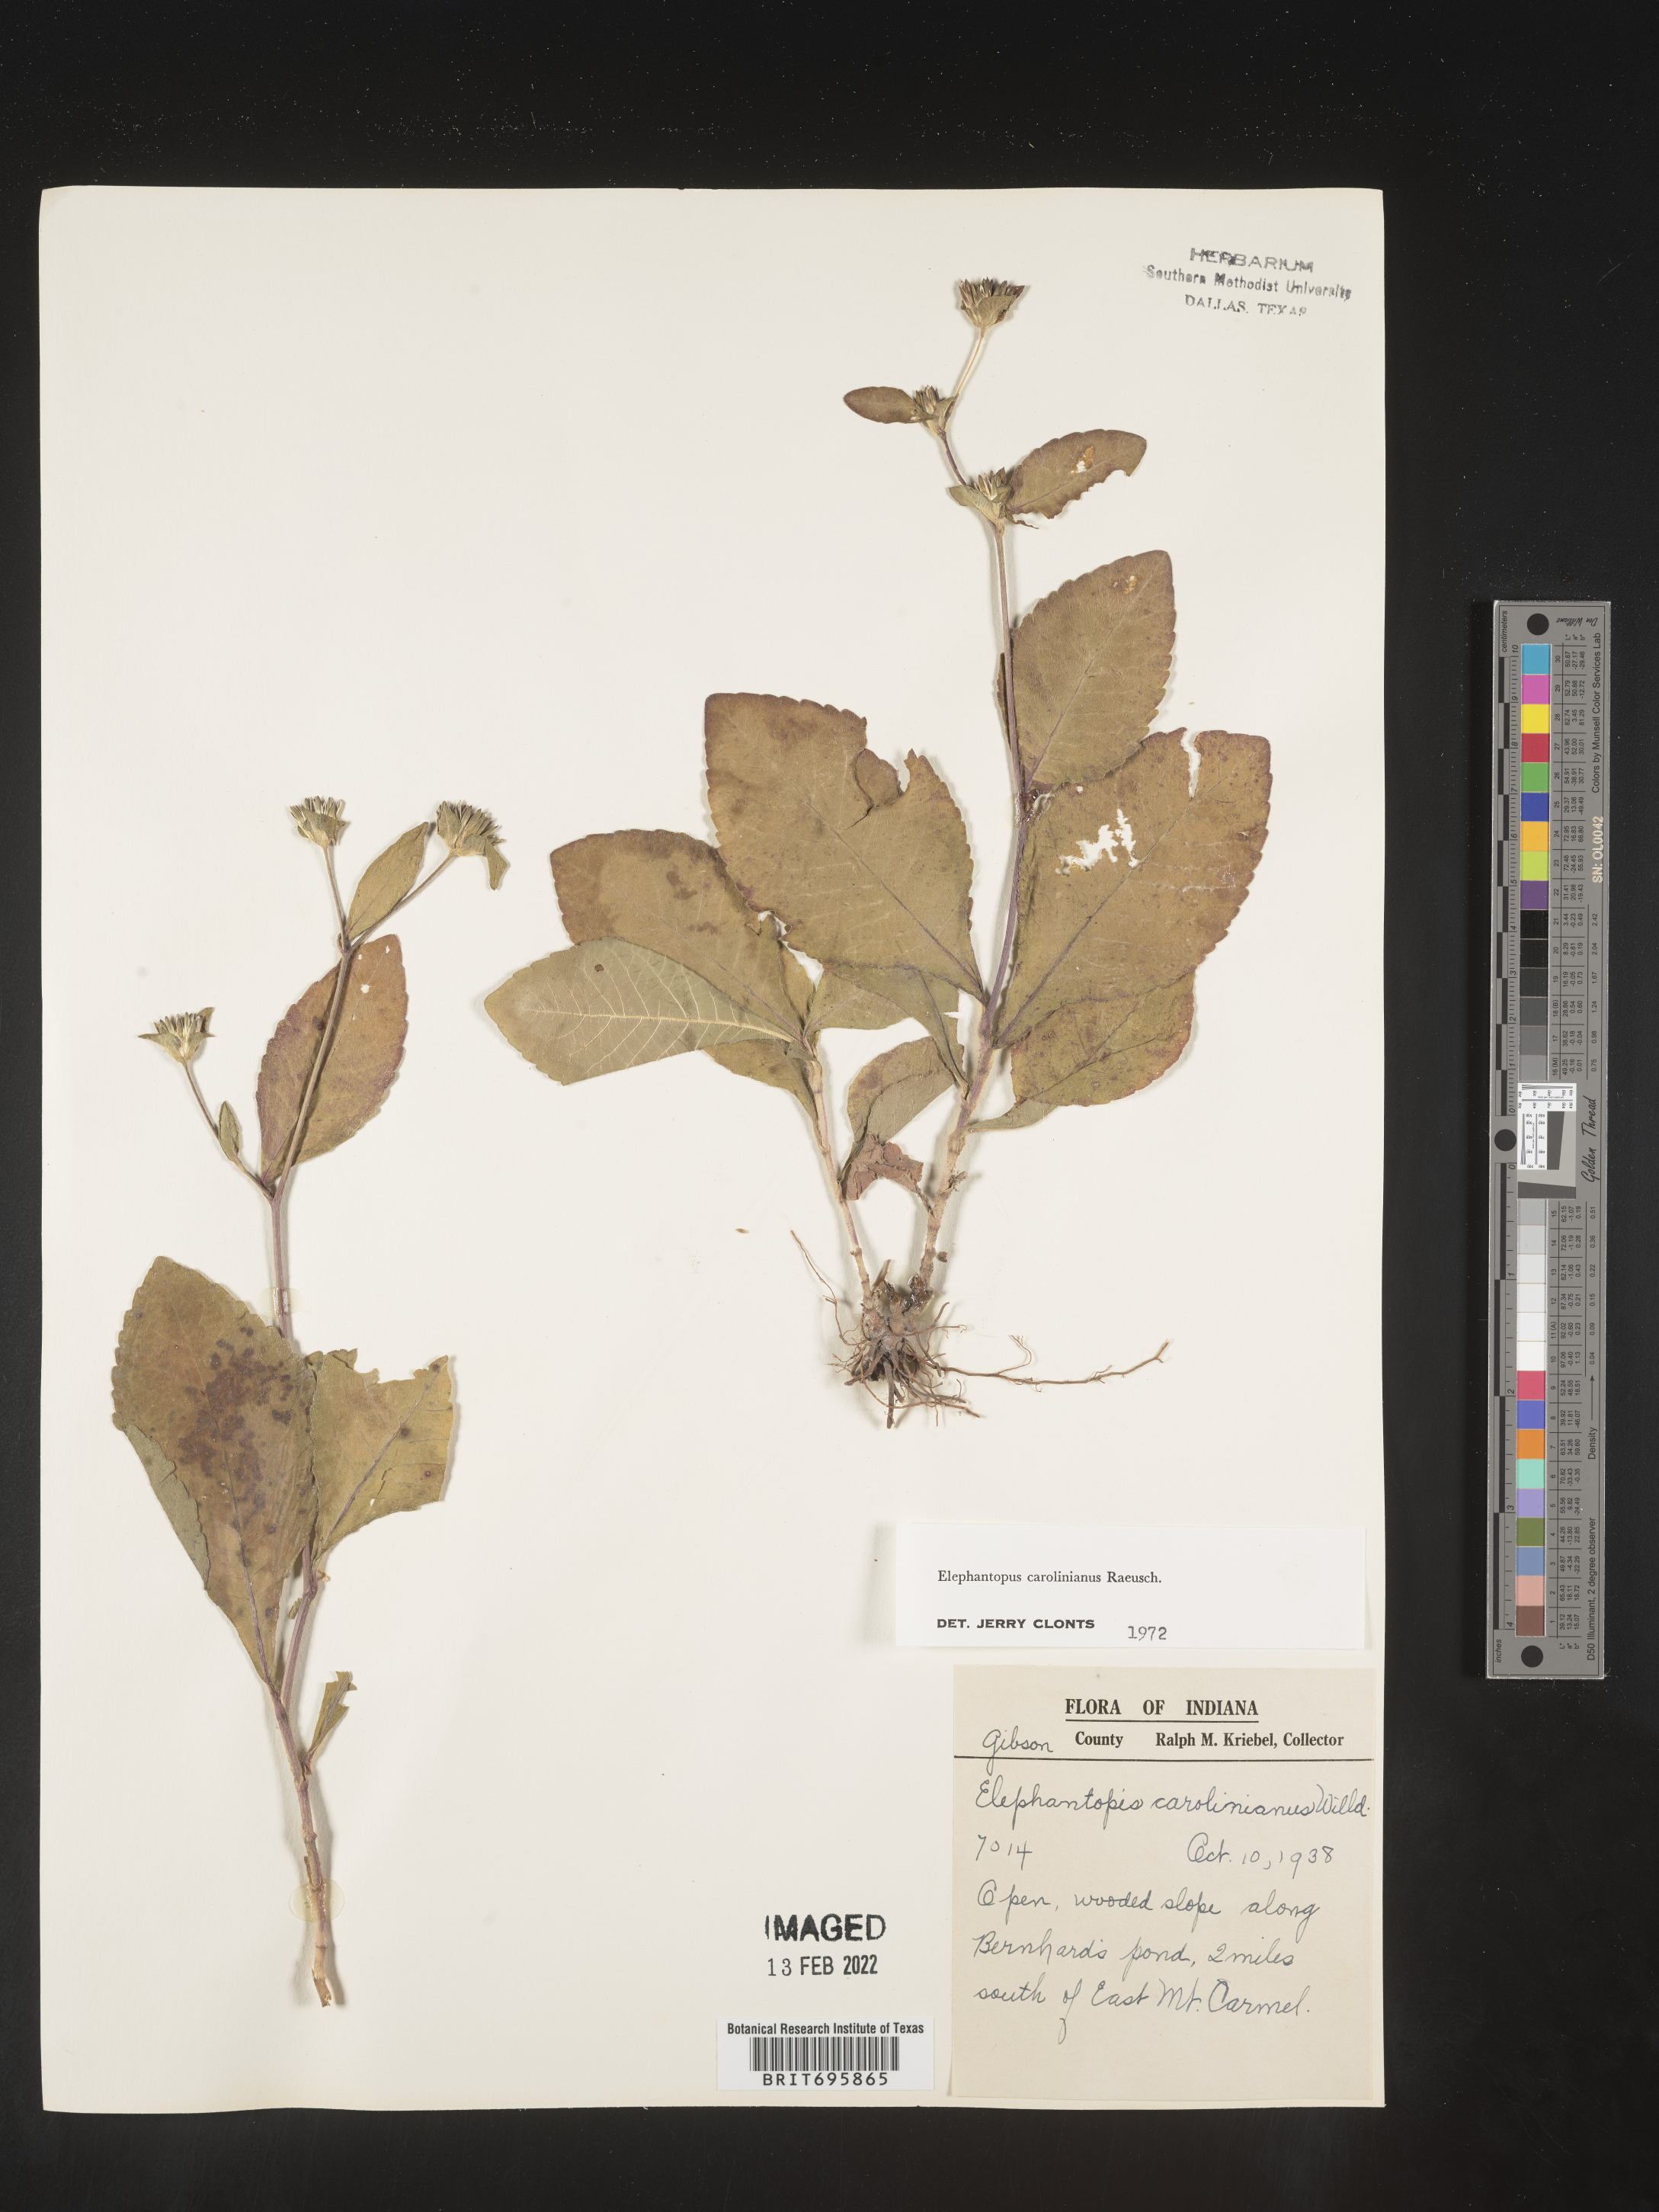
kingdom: Plantae
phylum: Tracheophyta
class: Magnoliopsida
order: Asterales
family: Asteraceae
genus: Elephantopus
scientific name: Elephantopus carolinianus
